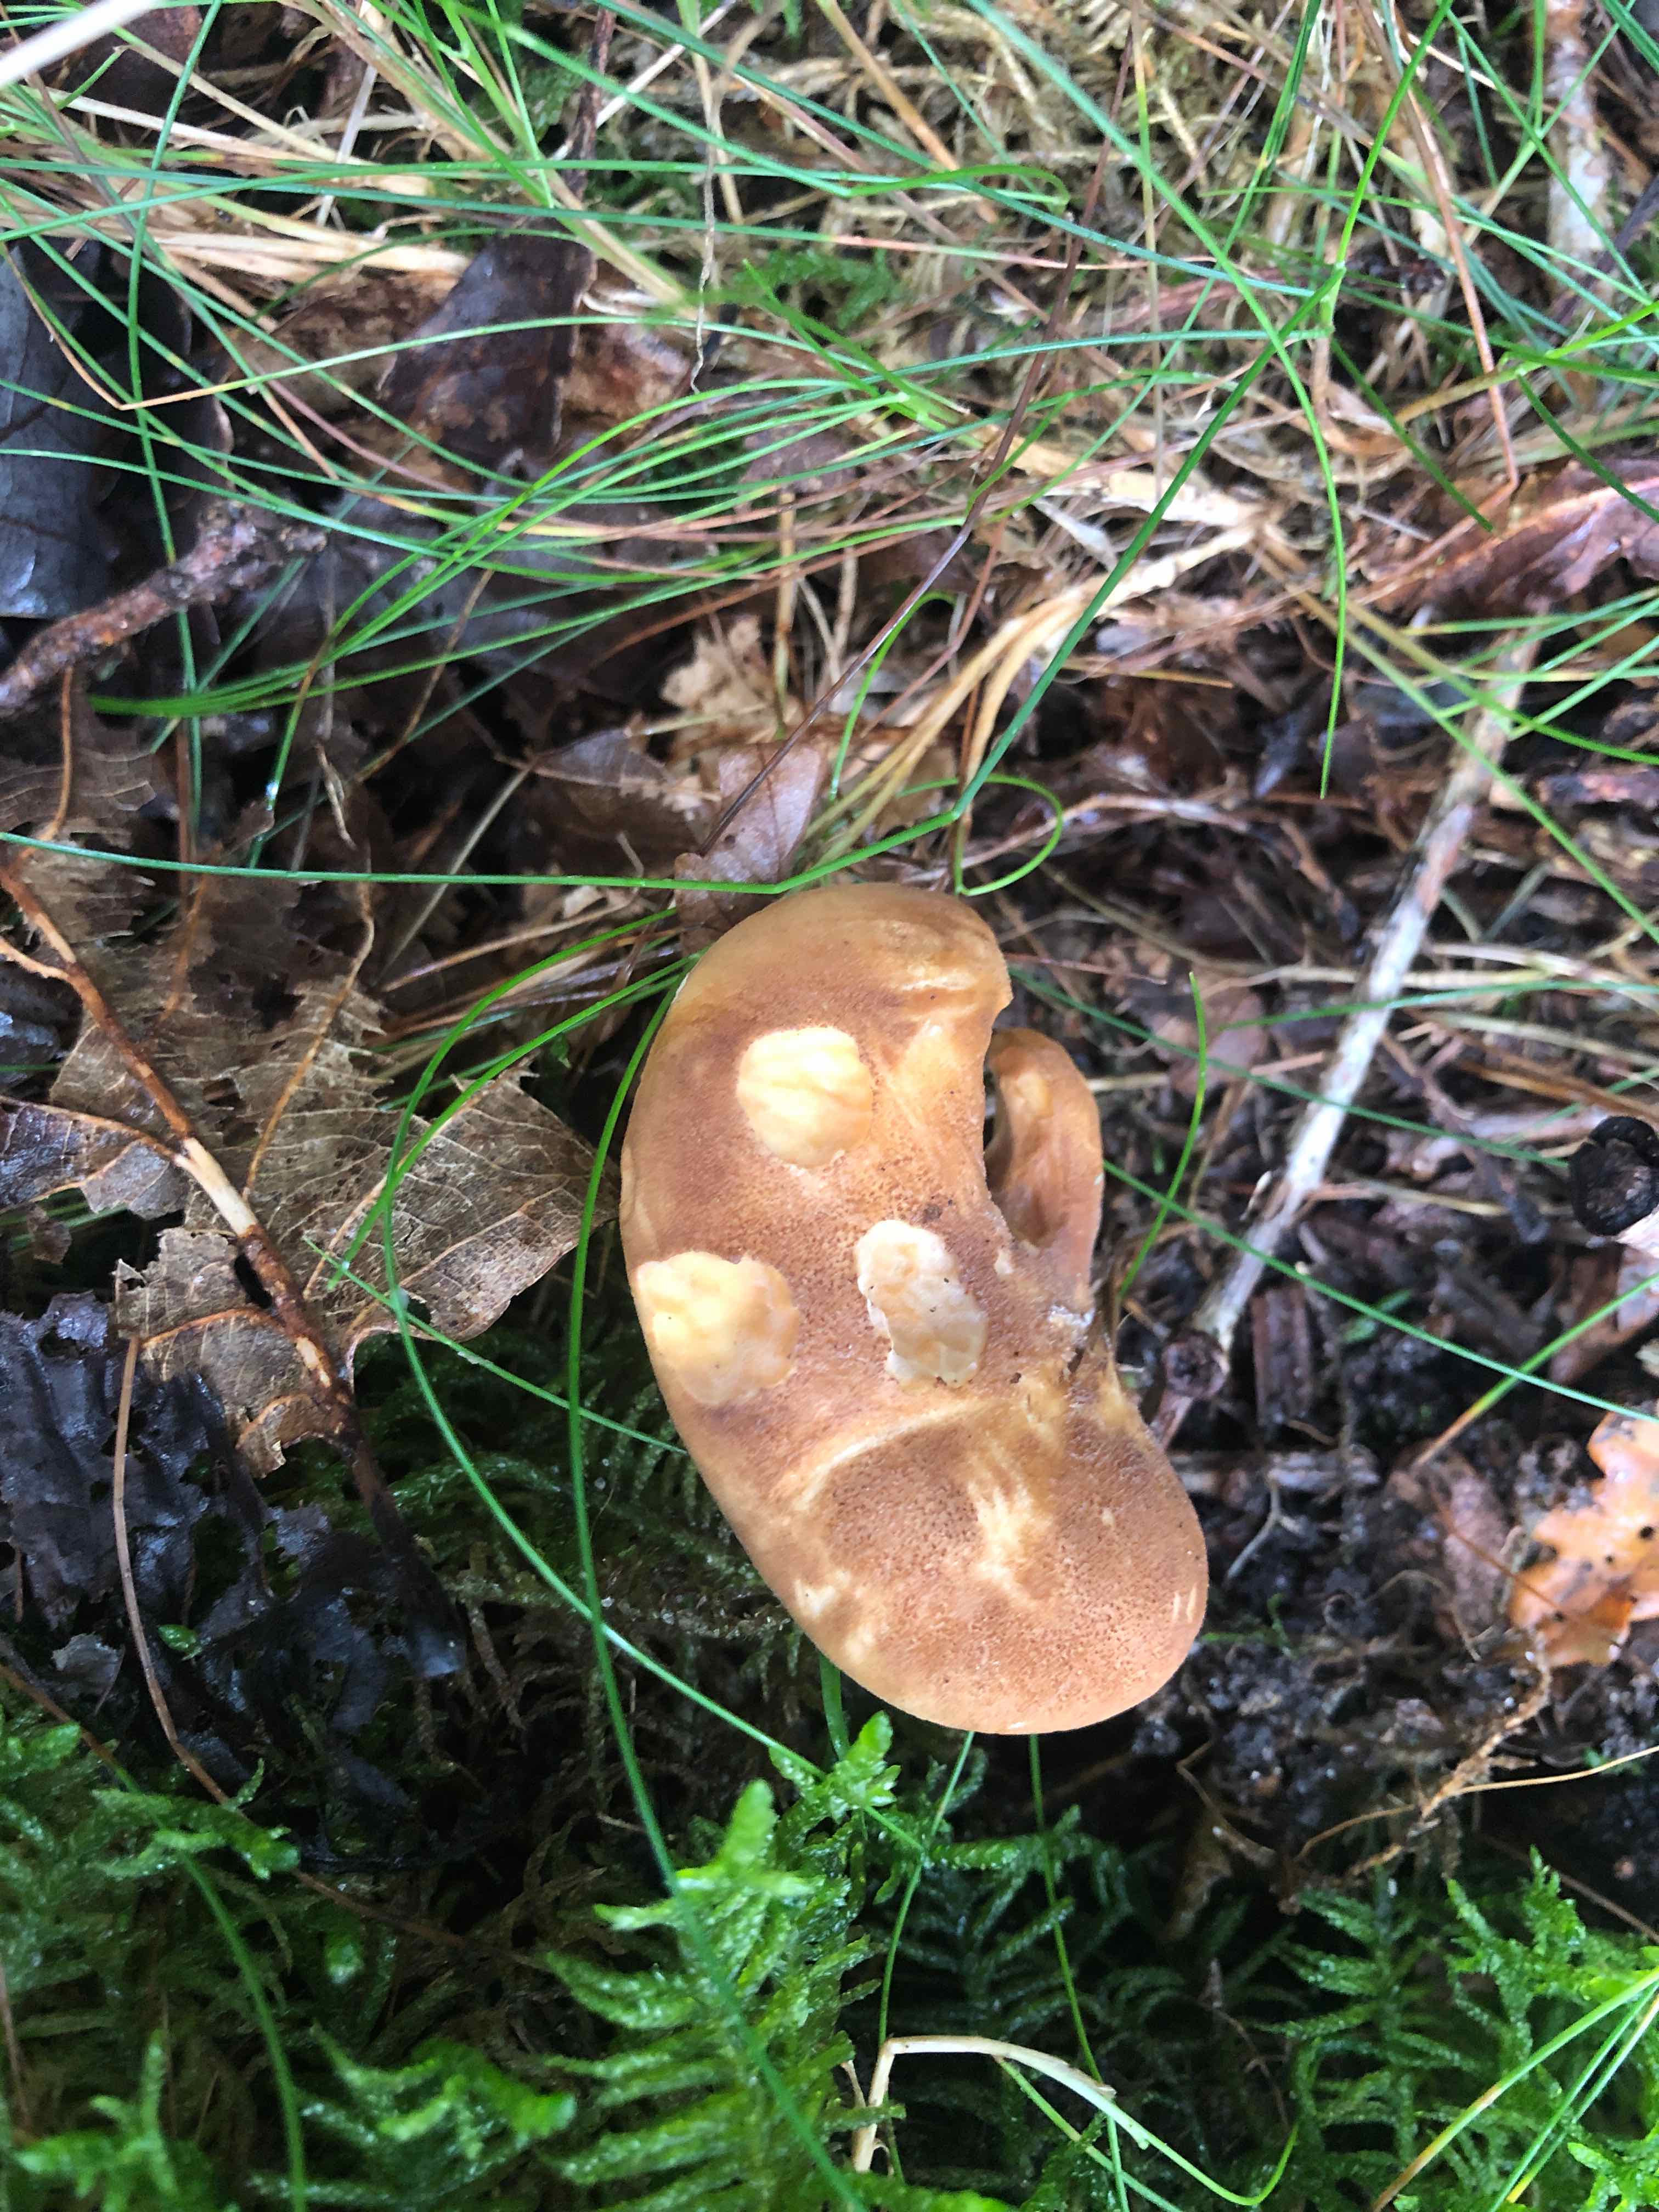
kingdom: Fungi
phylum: Basidiomycota
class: Agaricomycetes
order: Boletales
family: Tapinellaceae
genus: Tapinella
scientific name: Tapinella atrotomentosa
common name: sortfiltet viftesvamp
